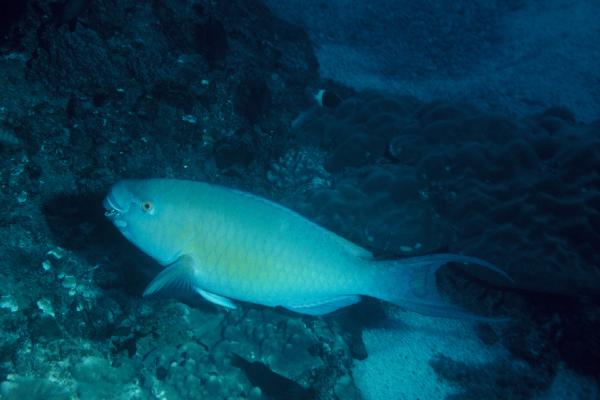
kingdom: Animalia
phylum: Chordata
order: Perciformes
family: Scaridae
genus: Scarus
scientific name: Scarus rubroviolaceus
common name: Ember parrotfish
